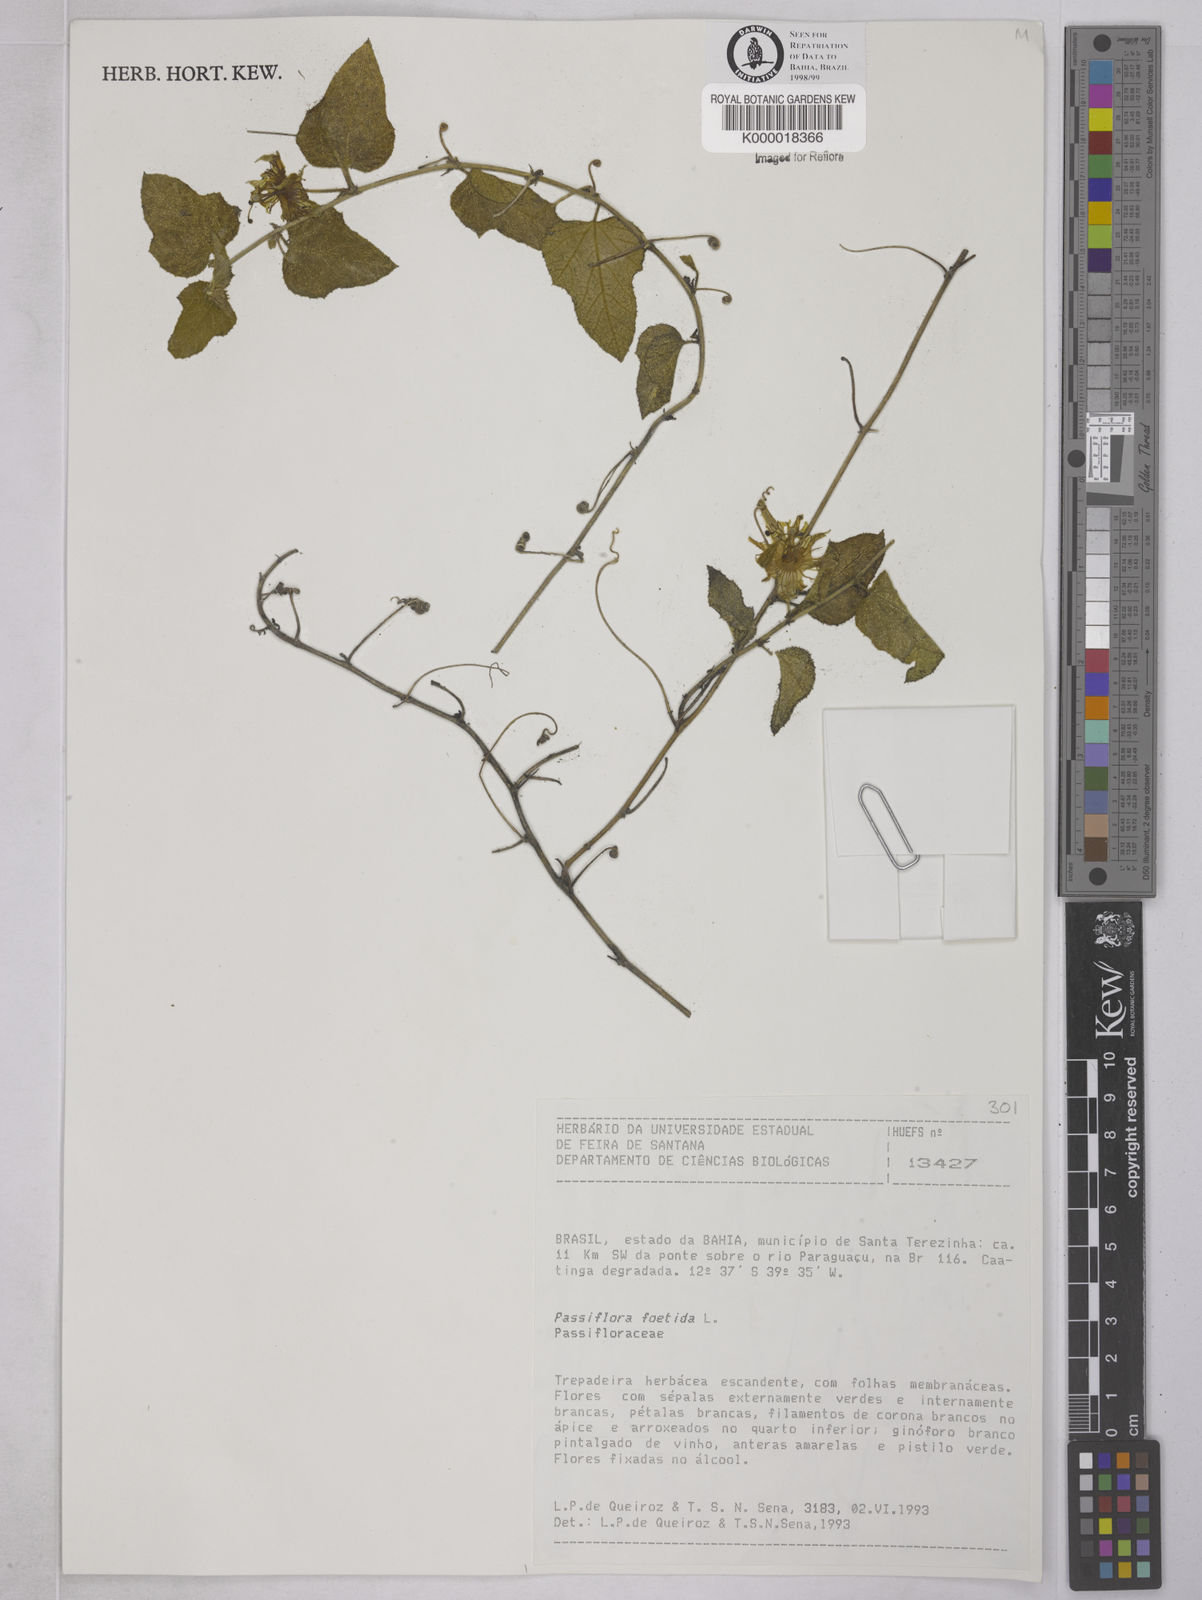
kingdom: Plantae
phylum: Tracheophyta
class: Magnoliopsida
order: Malpighiales
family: Passifloraceae
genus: Passiflora
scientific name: Passiflora foetida
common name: Fetid passionflower
